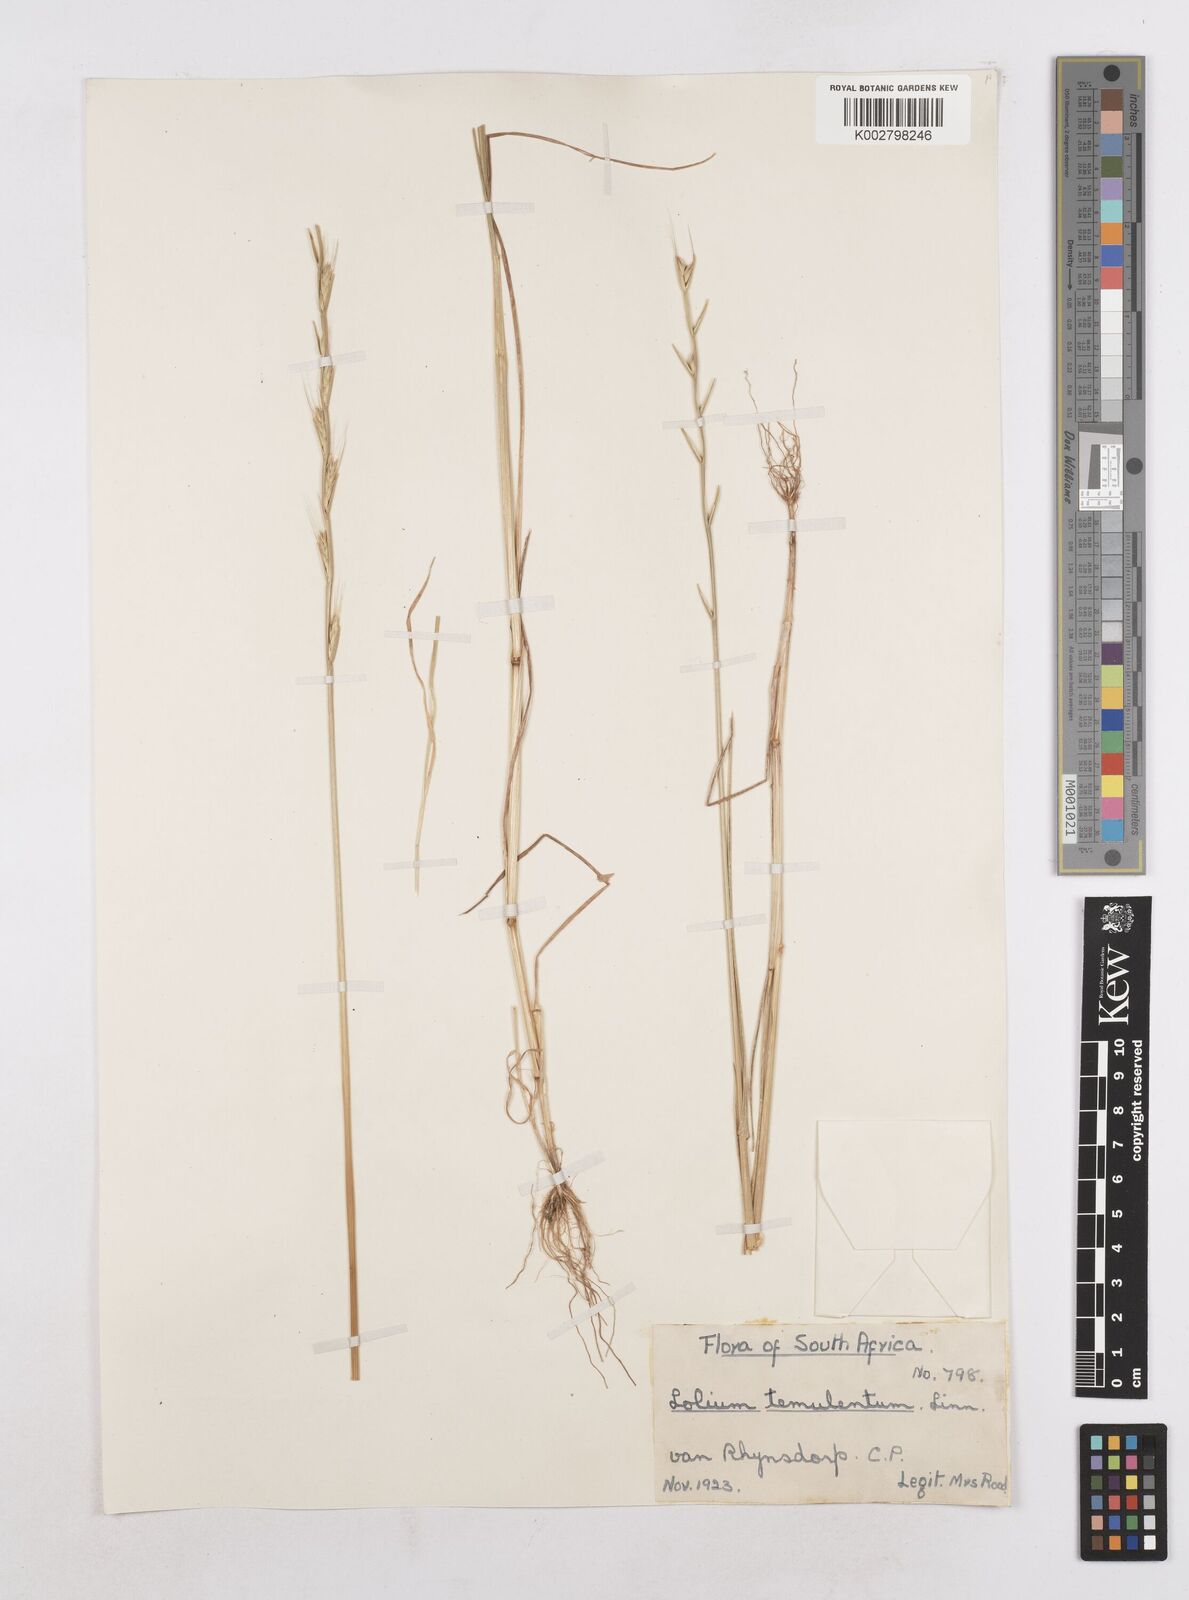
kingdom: Plantae
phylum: Tracheophyta
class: Liliopsida
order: Poales
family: Poaceae
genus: Lolium
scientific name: Lolium temulentum
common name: Darnel
